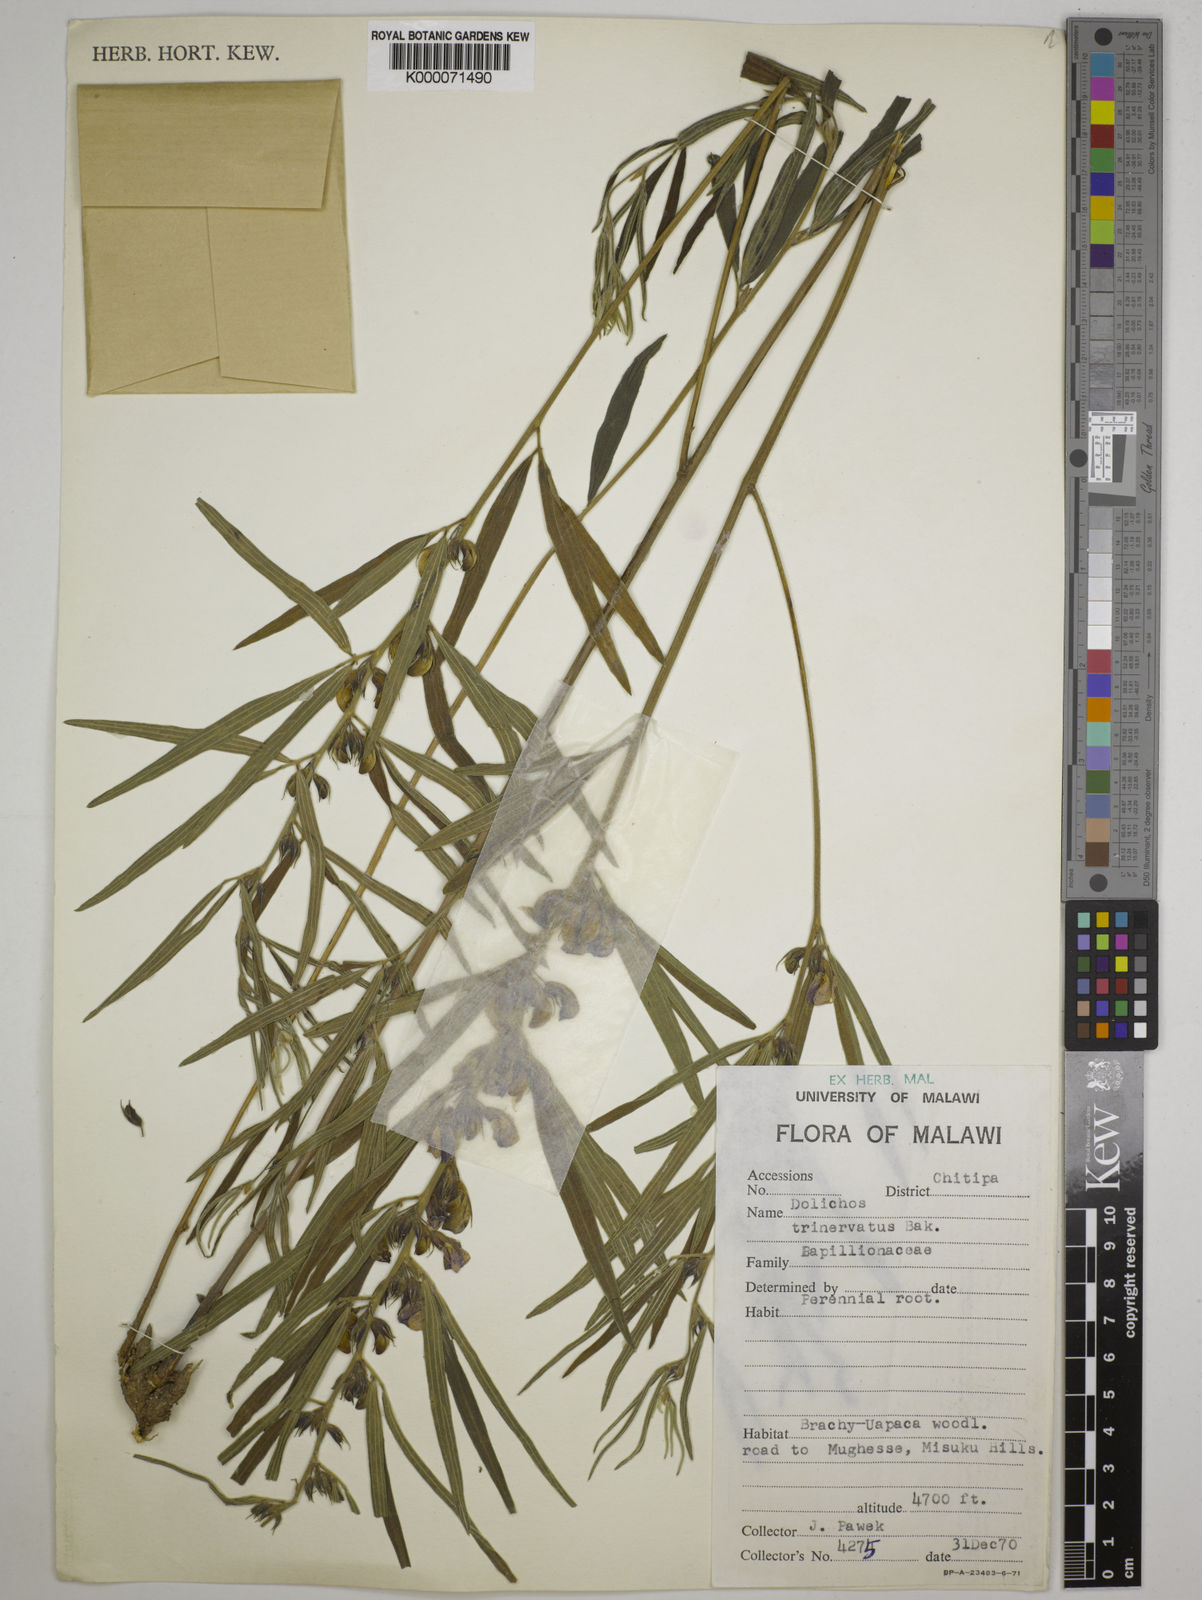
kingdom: Plantae
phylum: Tracheophyta
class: Magnoliopsida
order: Fabales
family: Fabaceae
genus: Dolichos
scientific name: Dolichos trinervatus
